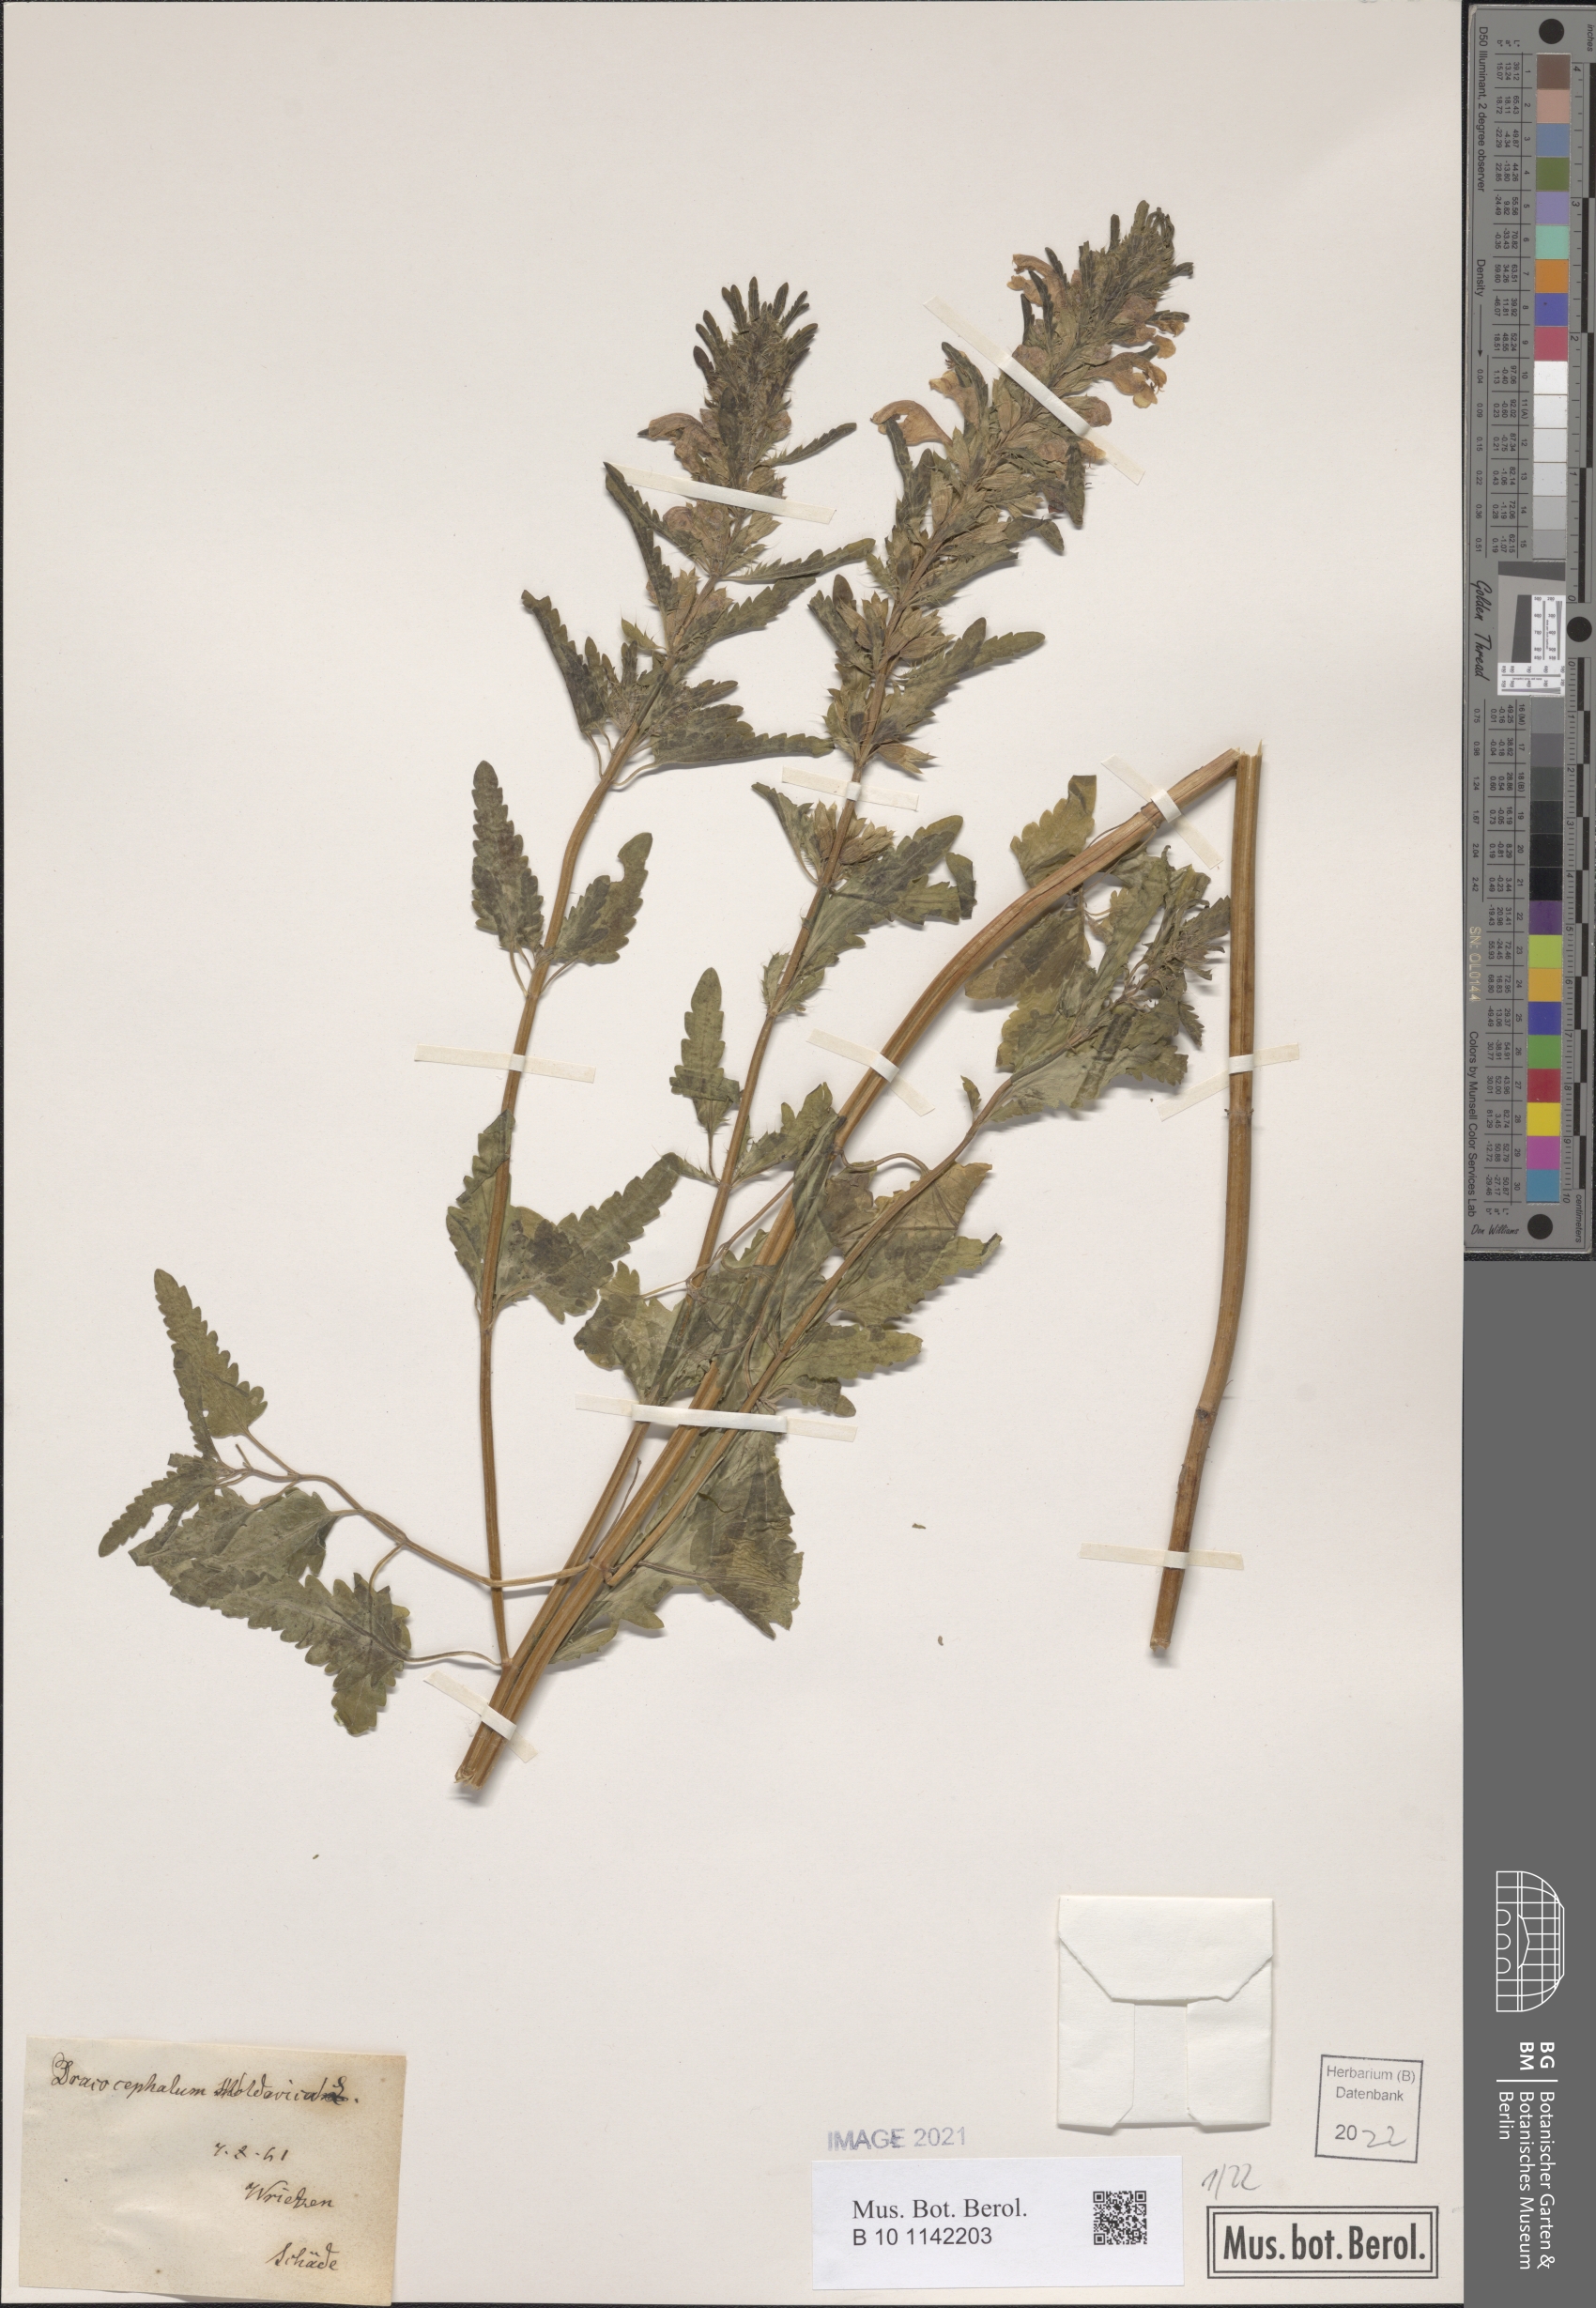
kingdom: Plantae
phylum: Tracheophyta
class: Magnoliopsida
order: Lamiales
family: Lamiaceae
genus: Dracocephalum
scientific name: Dracocephalum moldavica
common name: Moldavian dragonhead
